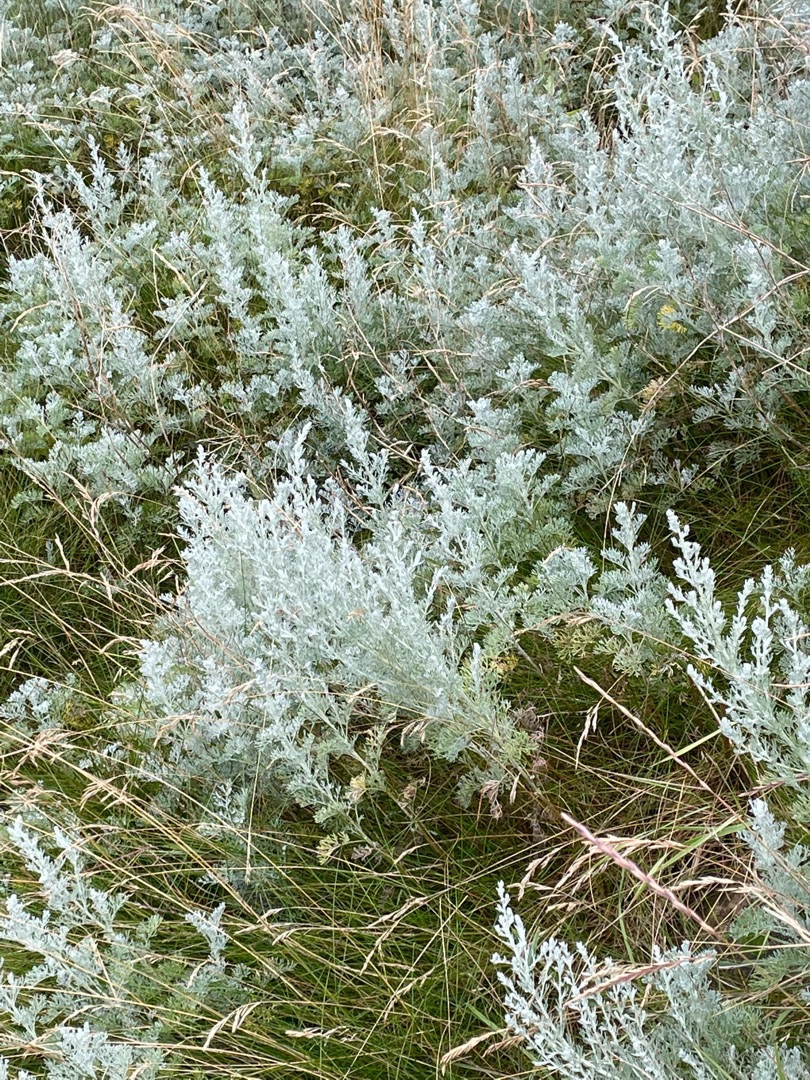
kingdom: Plantae
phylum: Tracheophyta
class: Magnoliopsida
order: Asterales
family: Asteraceae
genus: Artemisia
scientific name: Artemisia maritima
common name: Strandmalurt
